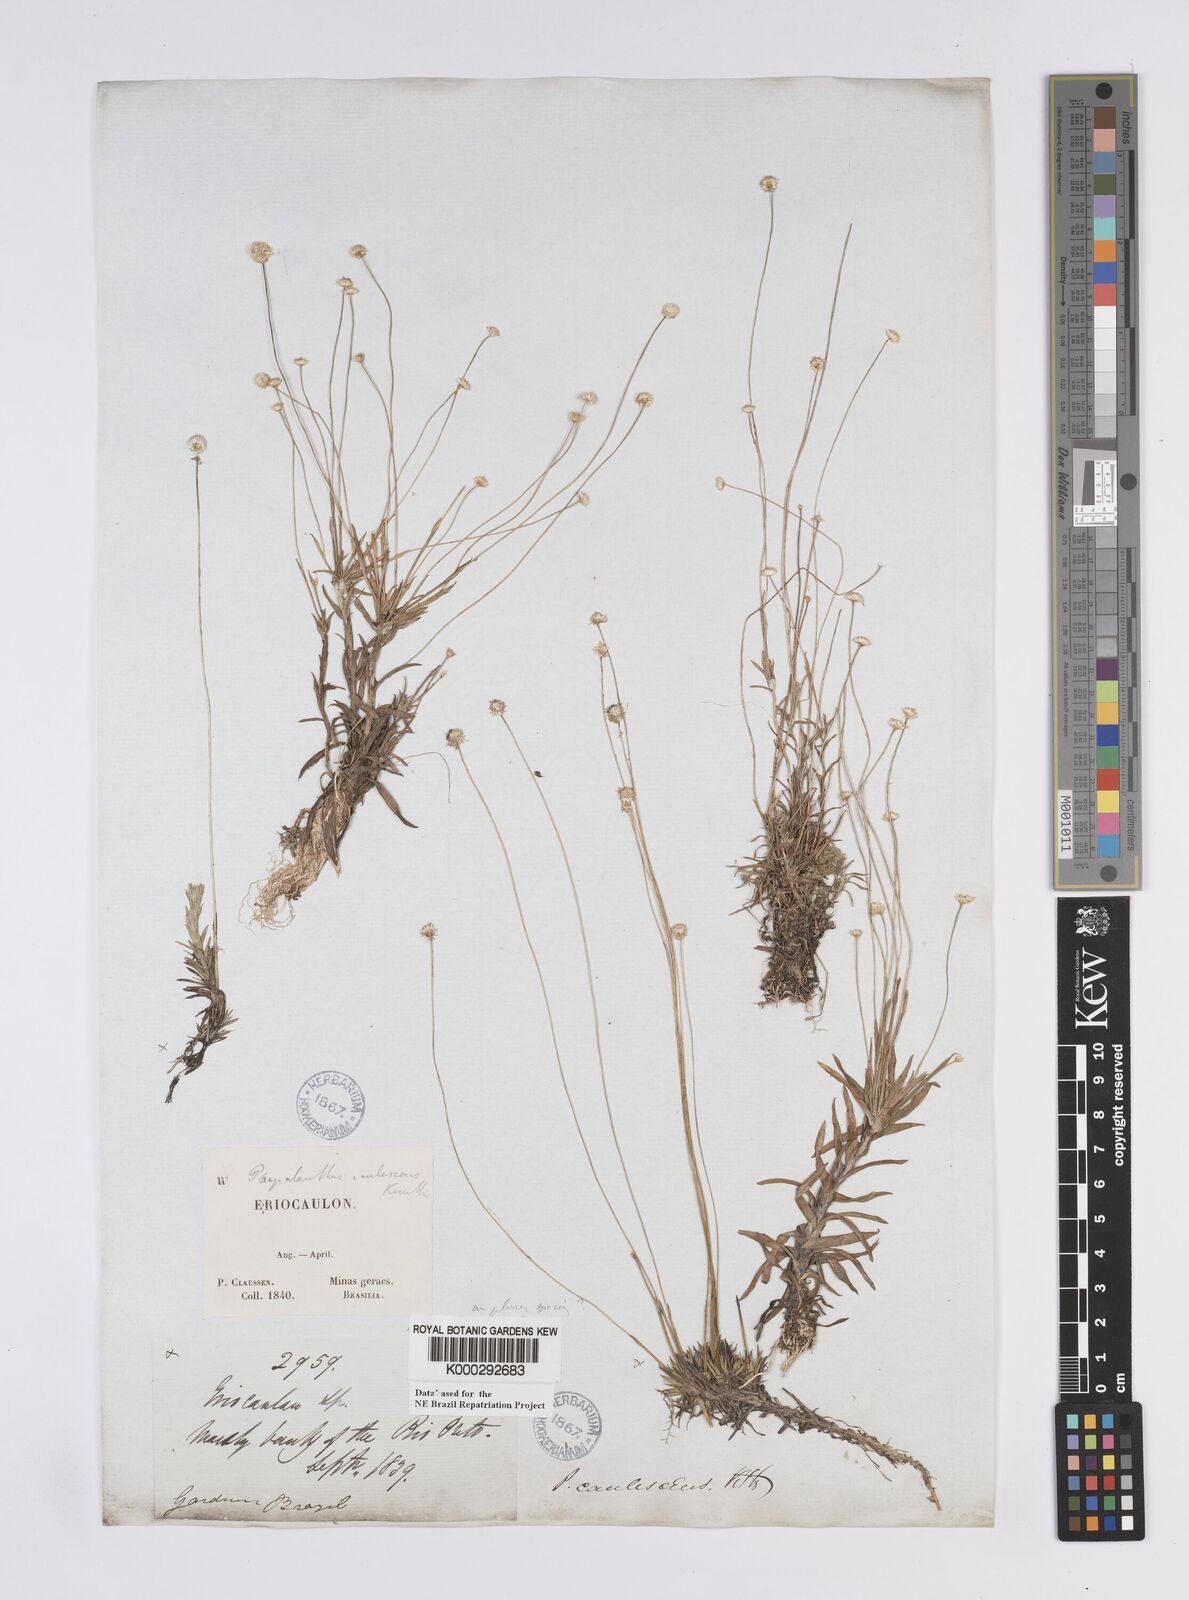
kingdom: Plantae
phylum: Tracheophyta
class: Liliopsida
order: Poales
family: Eriocaulaceae
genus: Syngonanthus
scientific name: Syngonanthus caulescens
